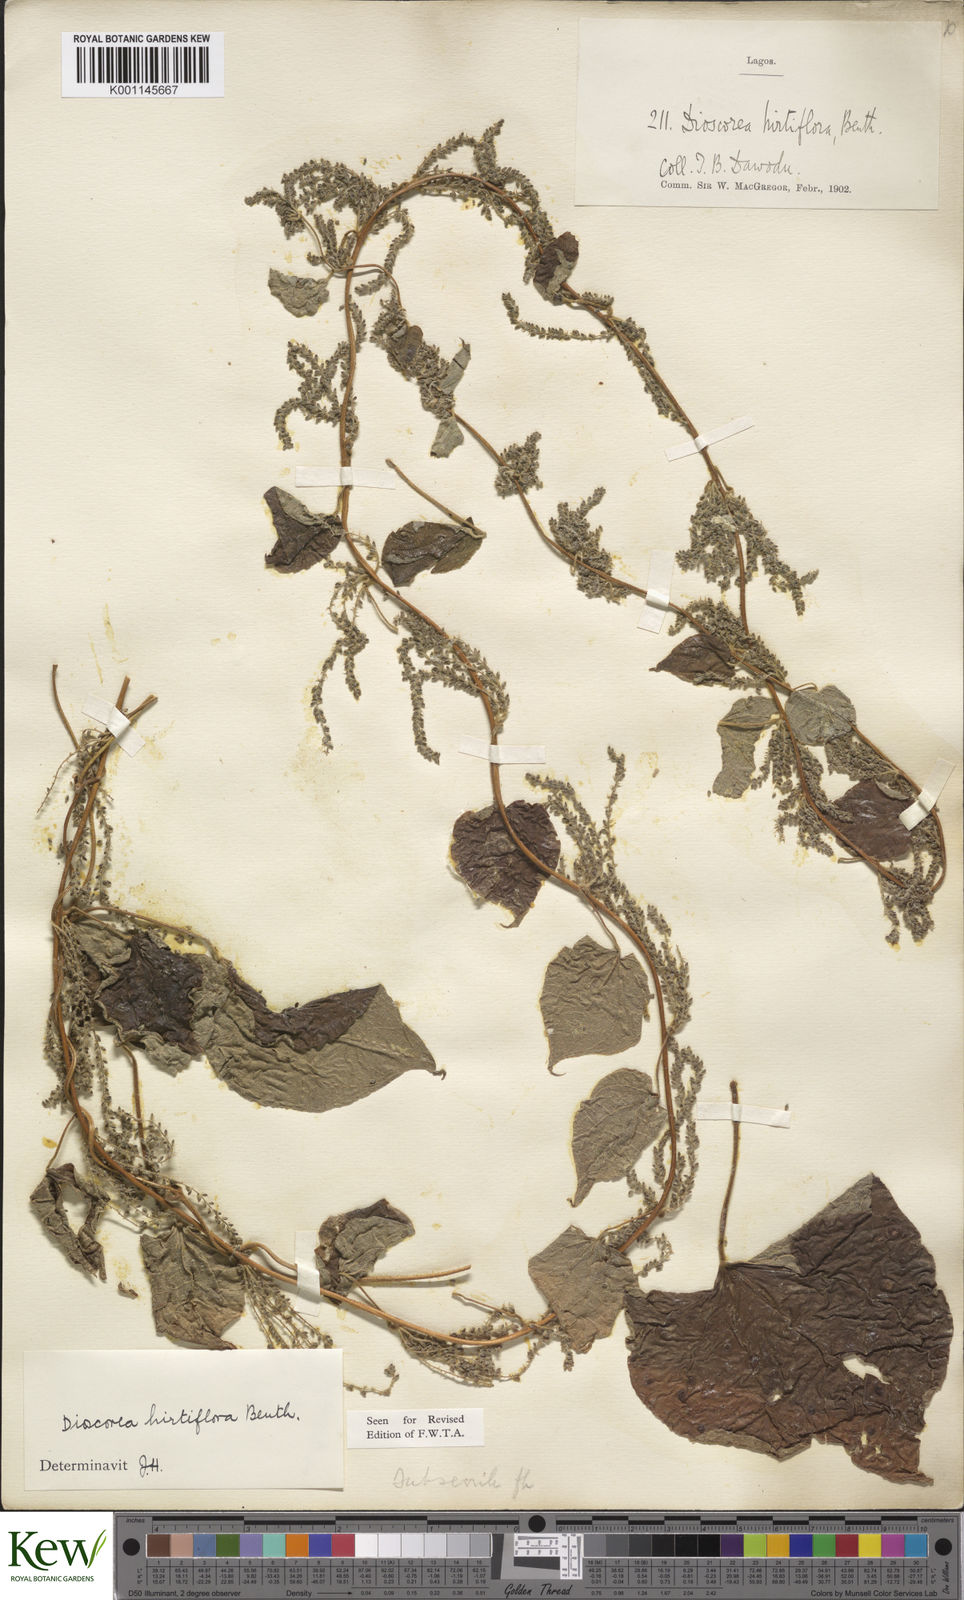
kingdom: Plantae
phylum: Tracheophyta
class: Liliopsida
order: Dioscoreales
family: Dioscoreaceae
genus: Dioscorea
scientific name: Dioscorea hirtiflora
